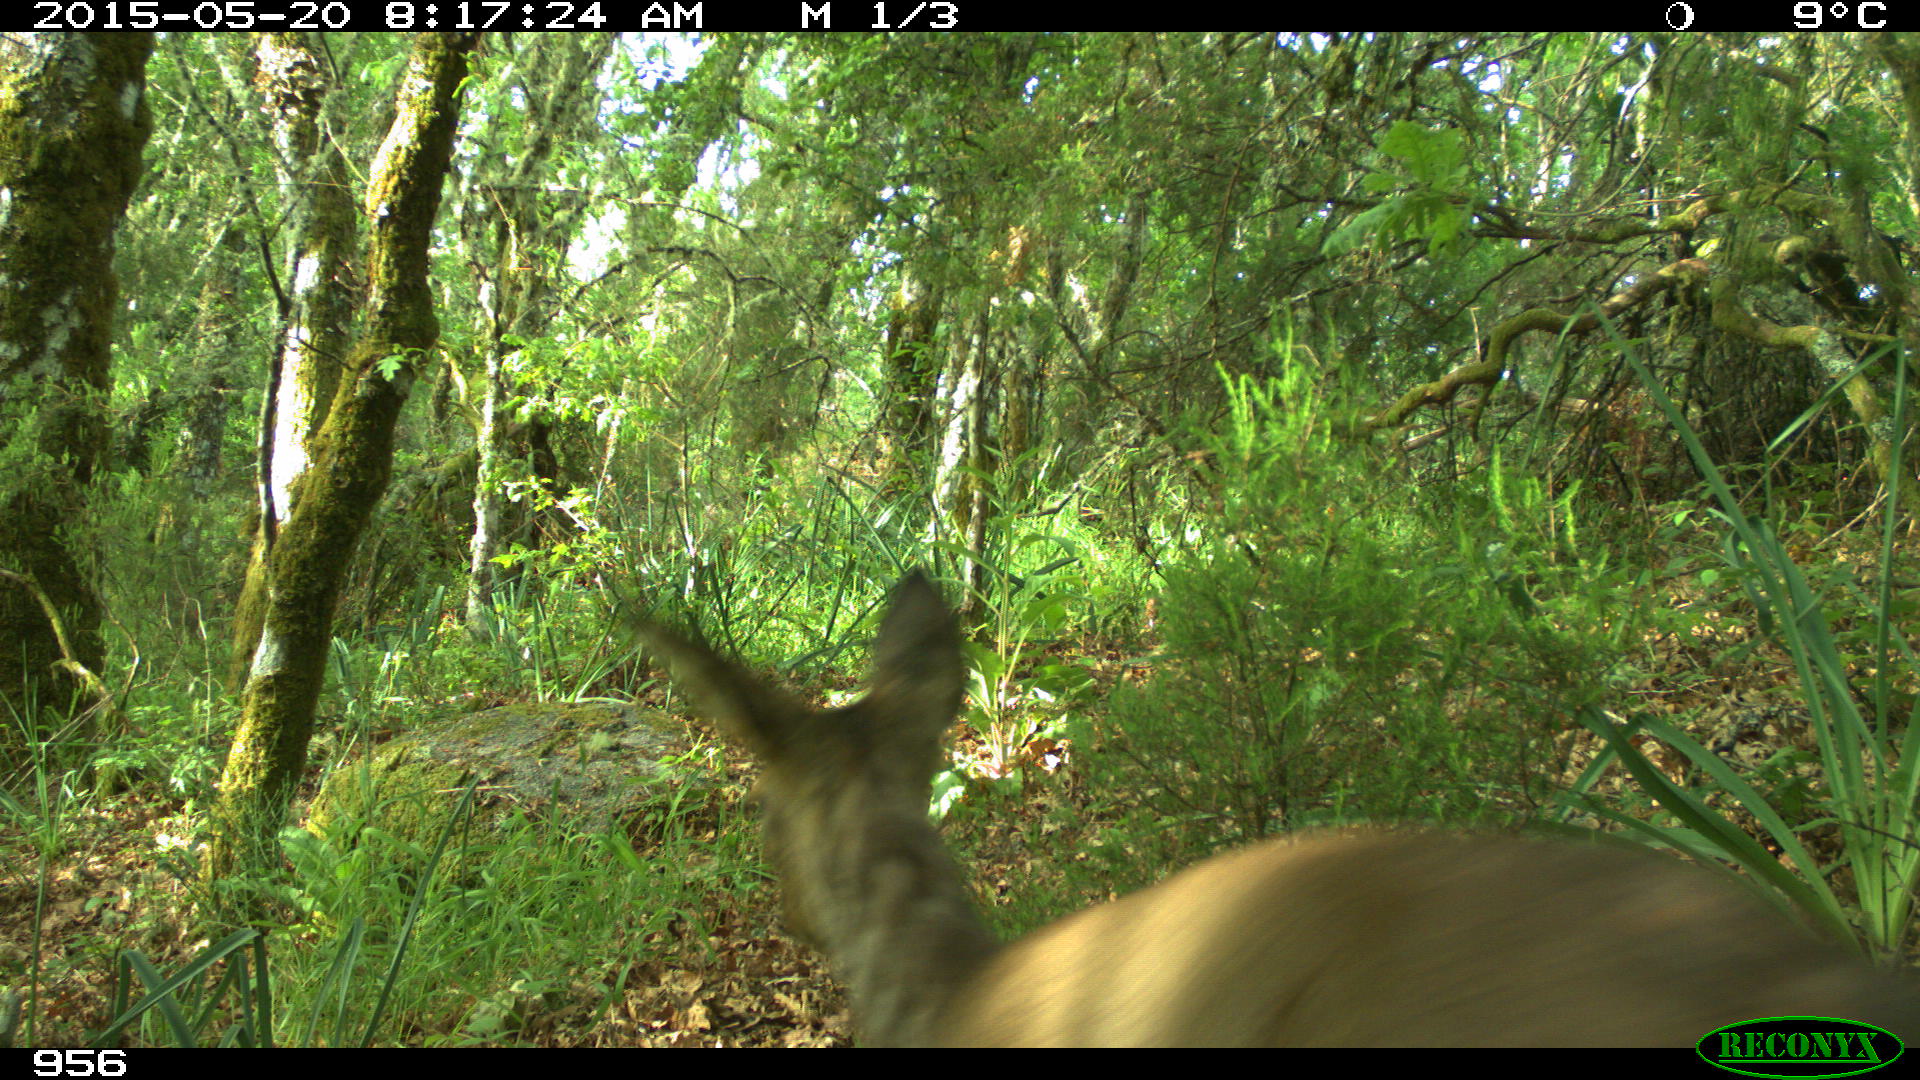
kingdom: Animalia
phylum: Chordata
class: Mammalia
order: Artiodactyla
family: Cervidae
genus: Capreolus
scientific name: Capreolus capreolus
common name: Western roe deer
